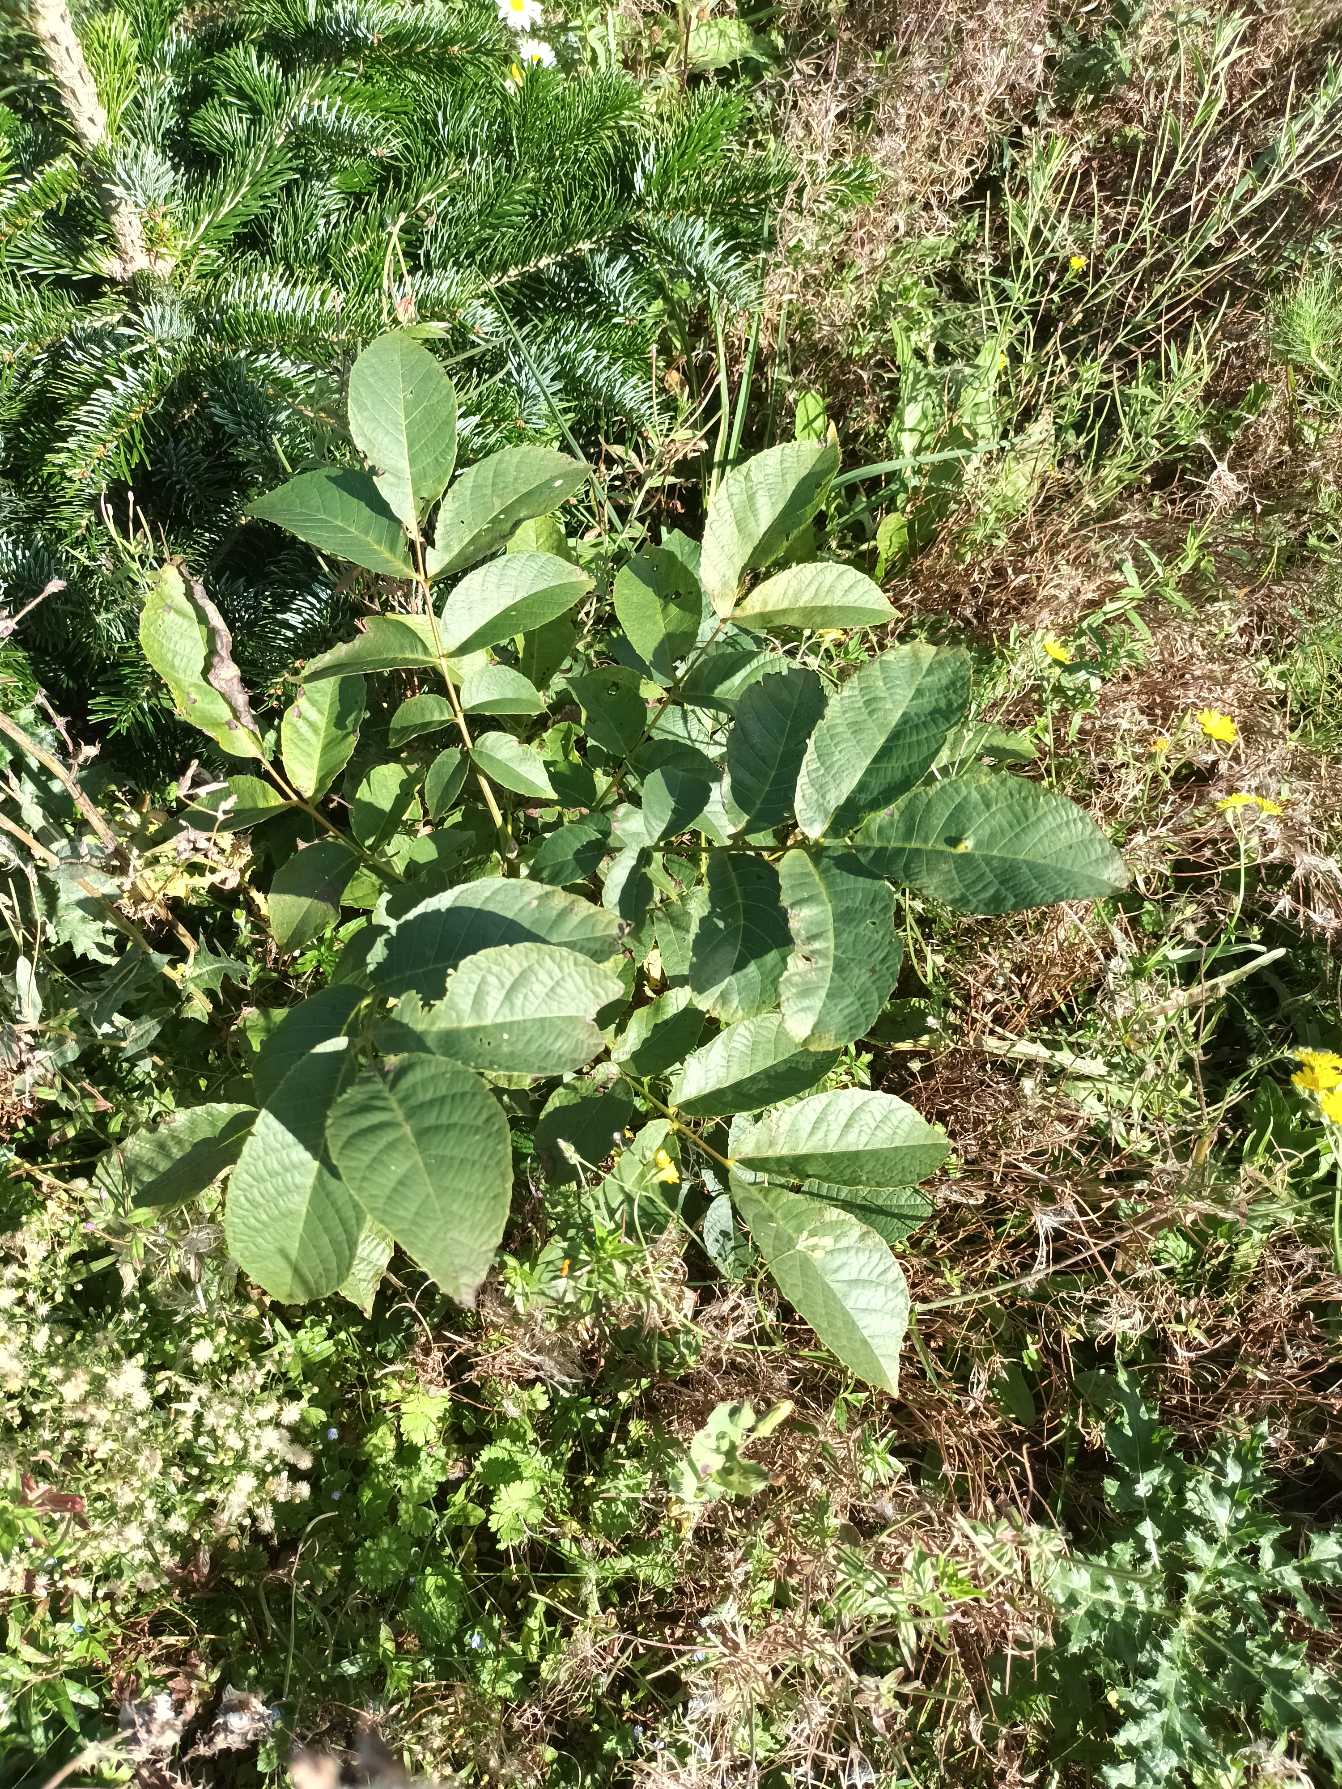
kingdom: Plantae
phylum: Tracheophyta
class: Magnoliopsida
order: Fagales
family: Juglandaceae
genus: Juglans
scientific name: Juglans regia
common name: Almindelig valnød
